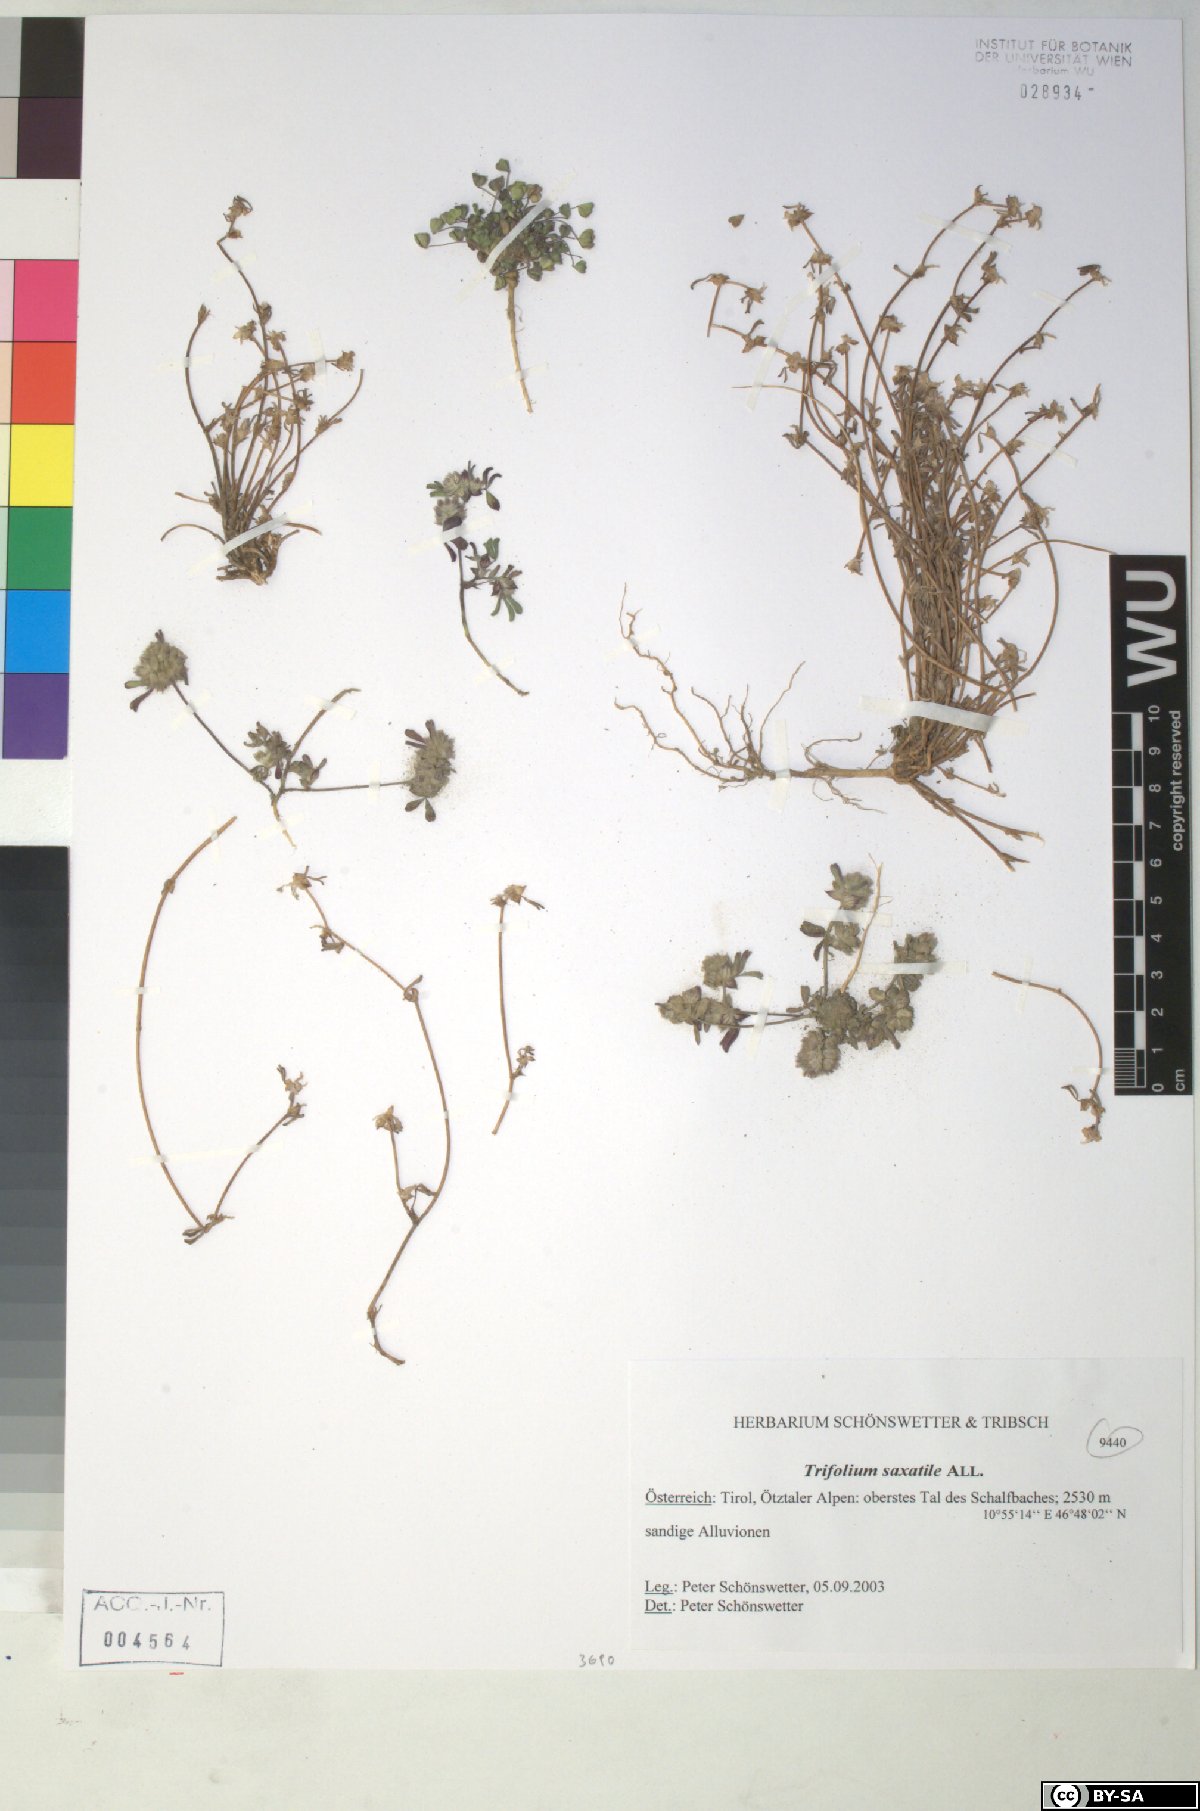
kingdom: Plantae
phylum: Tracheophyta
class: Magnoliopsida
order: Fabales
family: Fabaceae
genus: Trifolium
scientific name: Trifolium saxatile
